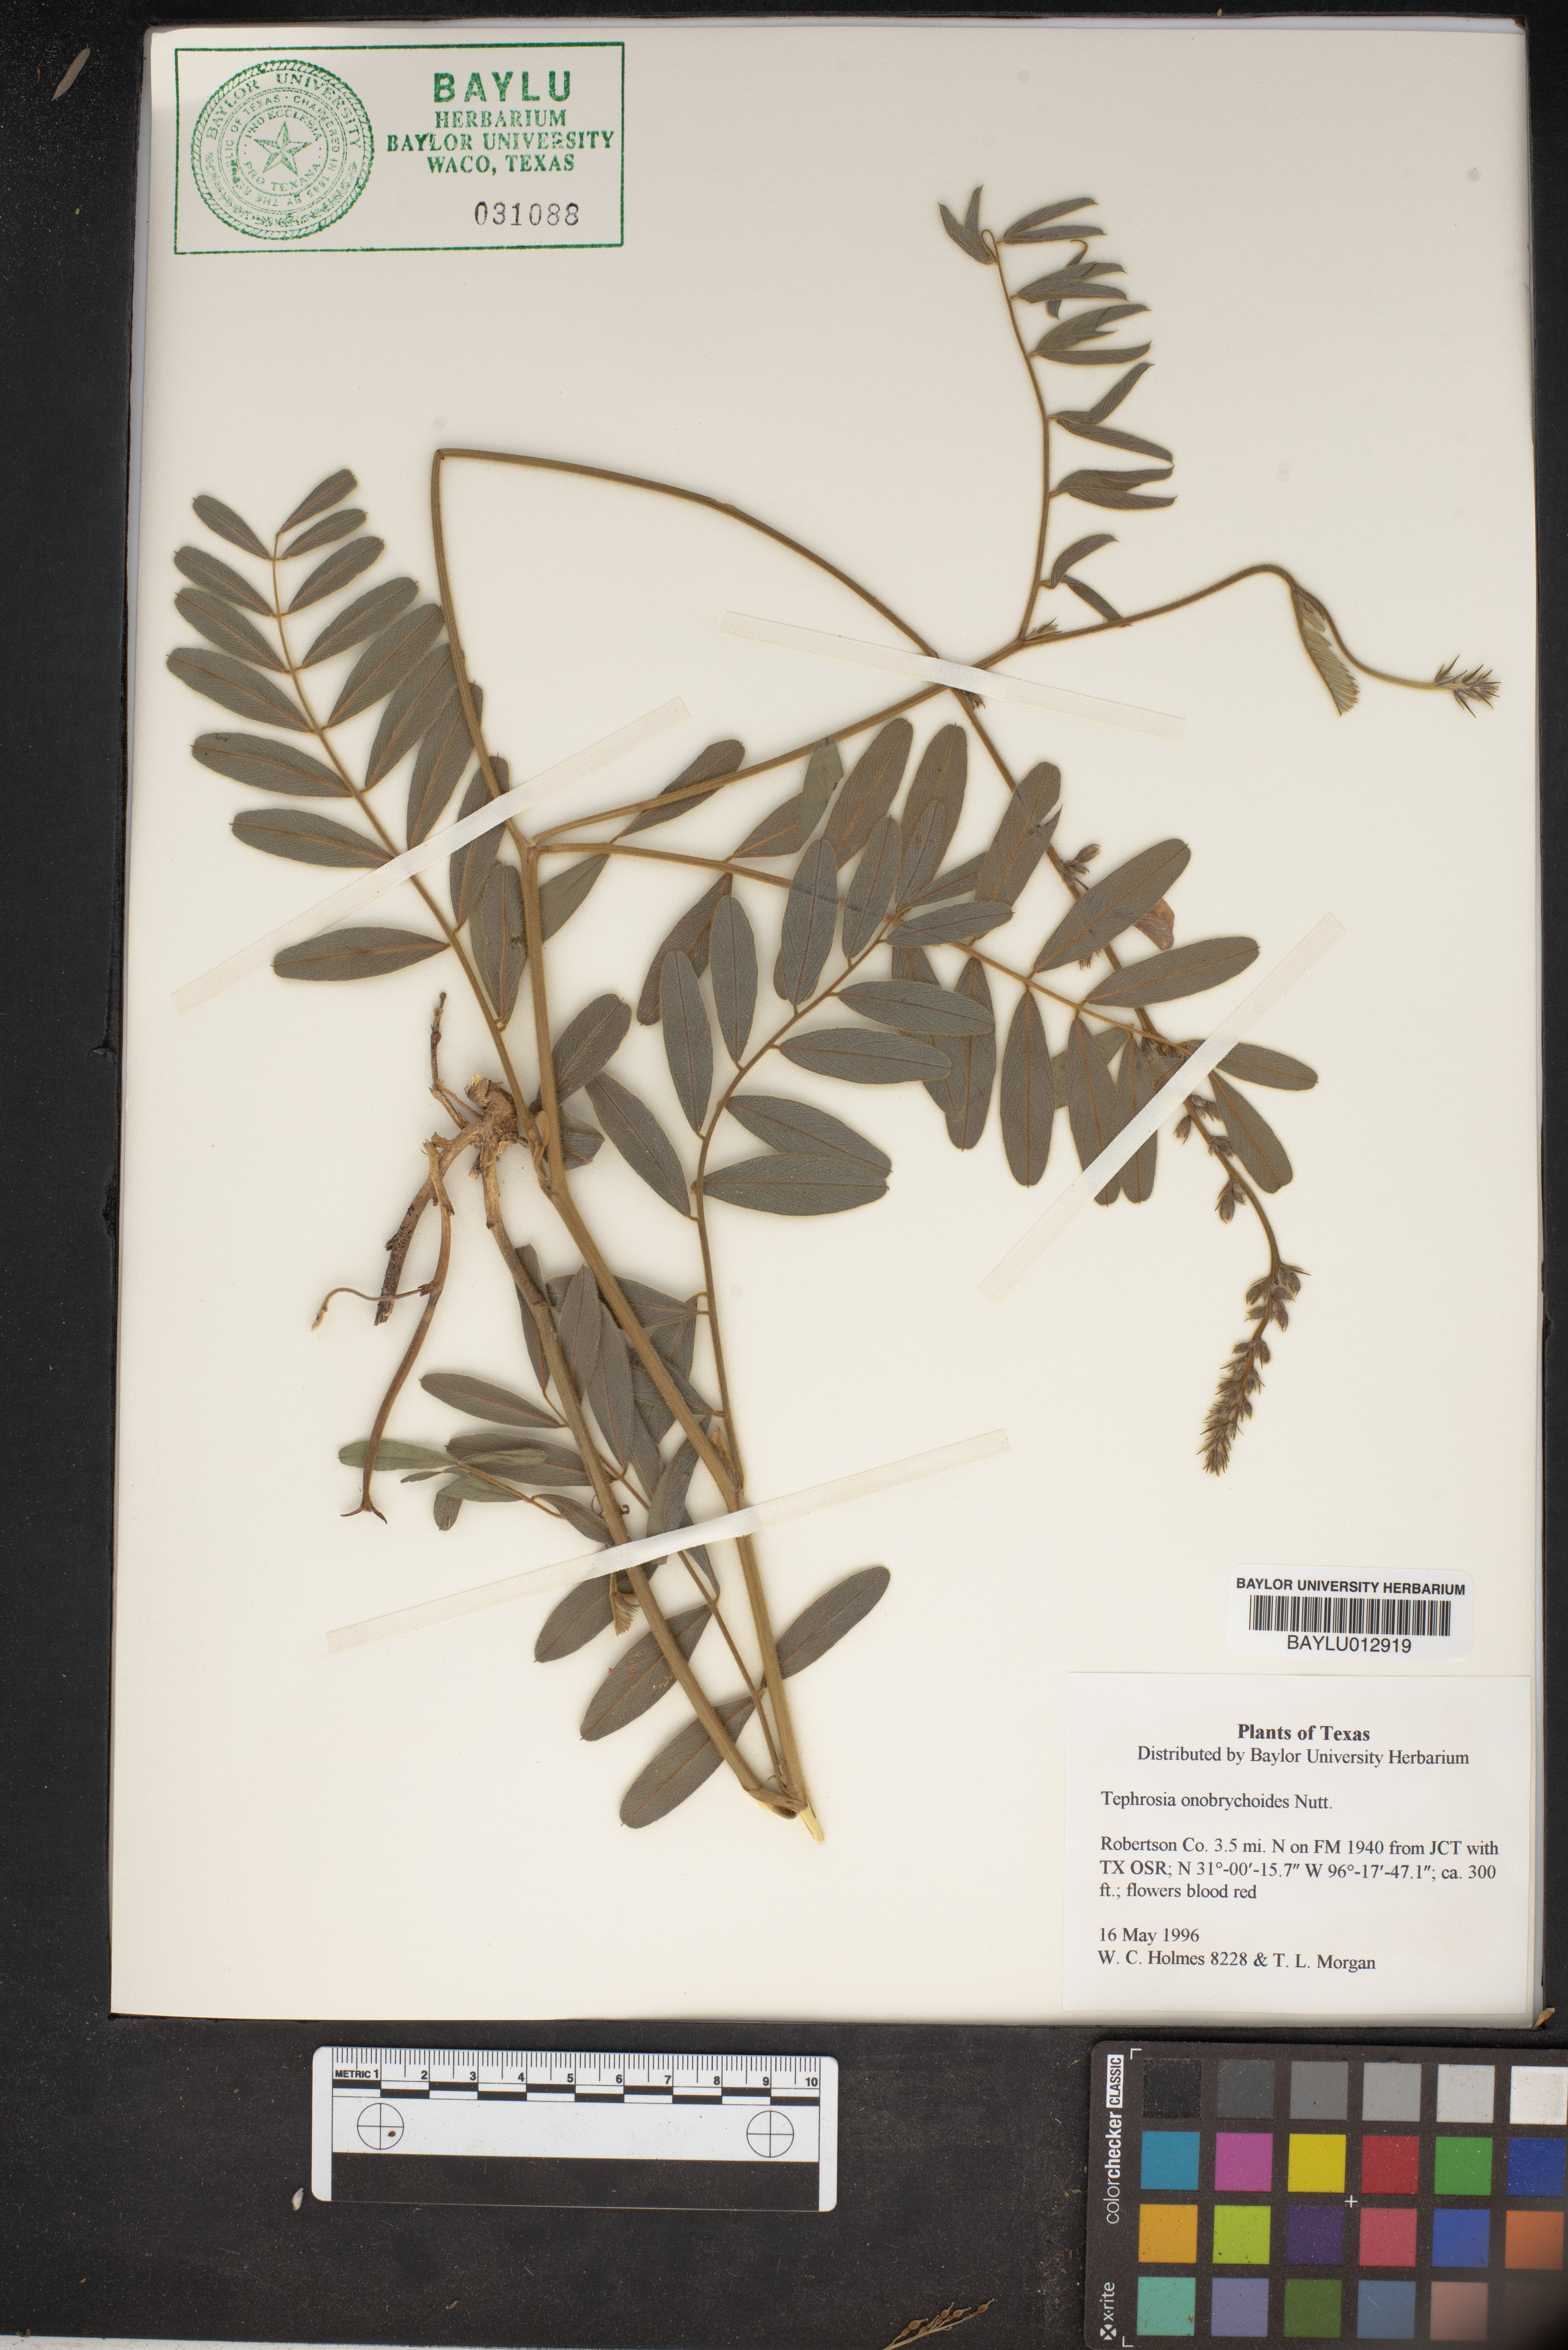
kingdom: Plantae
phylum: Tracheophyta
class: Magnoliopsida
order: Fabales
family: Fabaceae
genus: Tephrosia
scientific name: Tephrosia onobrychoides
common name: Multi-bloom hoary-pea
